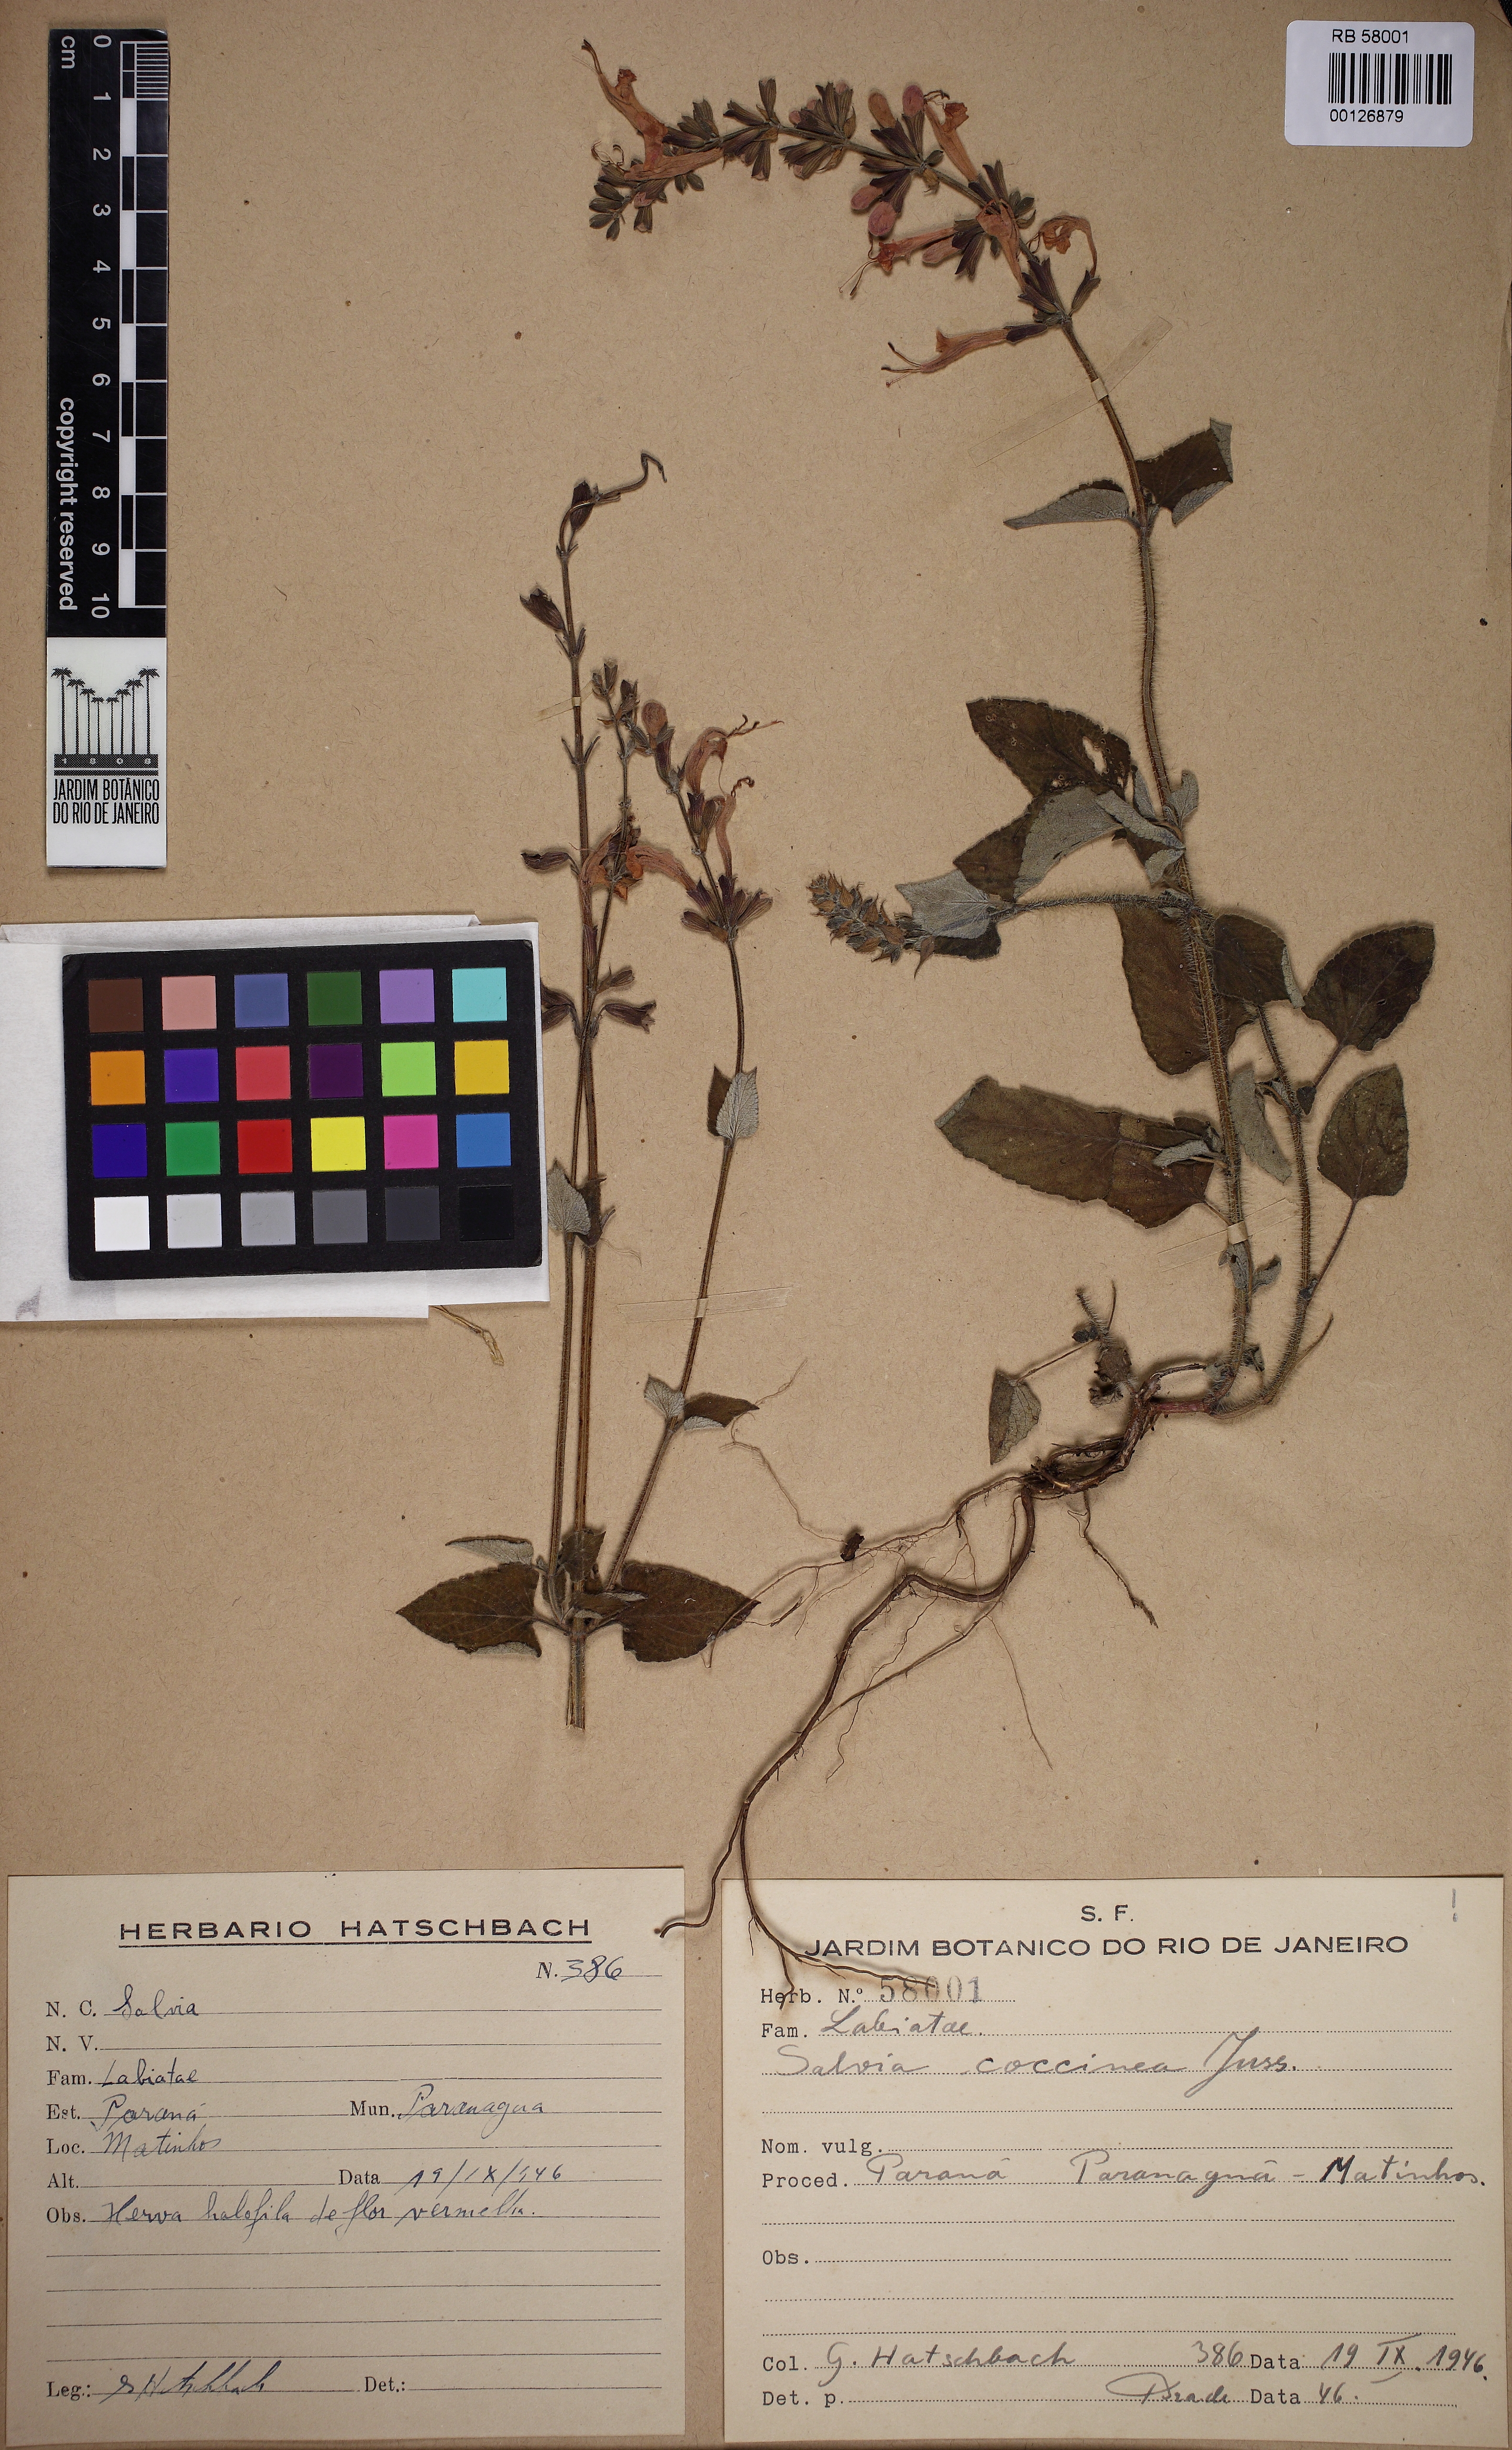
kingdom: Plantae
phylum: Tracheophyta
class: Magnoliopsida
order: Lamiales
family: Lamiaceae
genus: Salvia
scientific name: Salvia coccinea
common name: Blood sage
